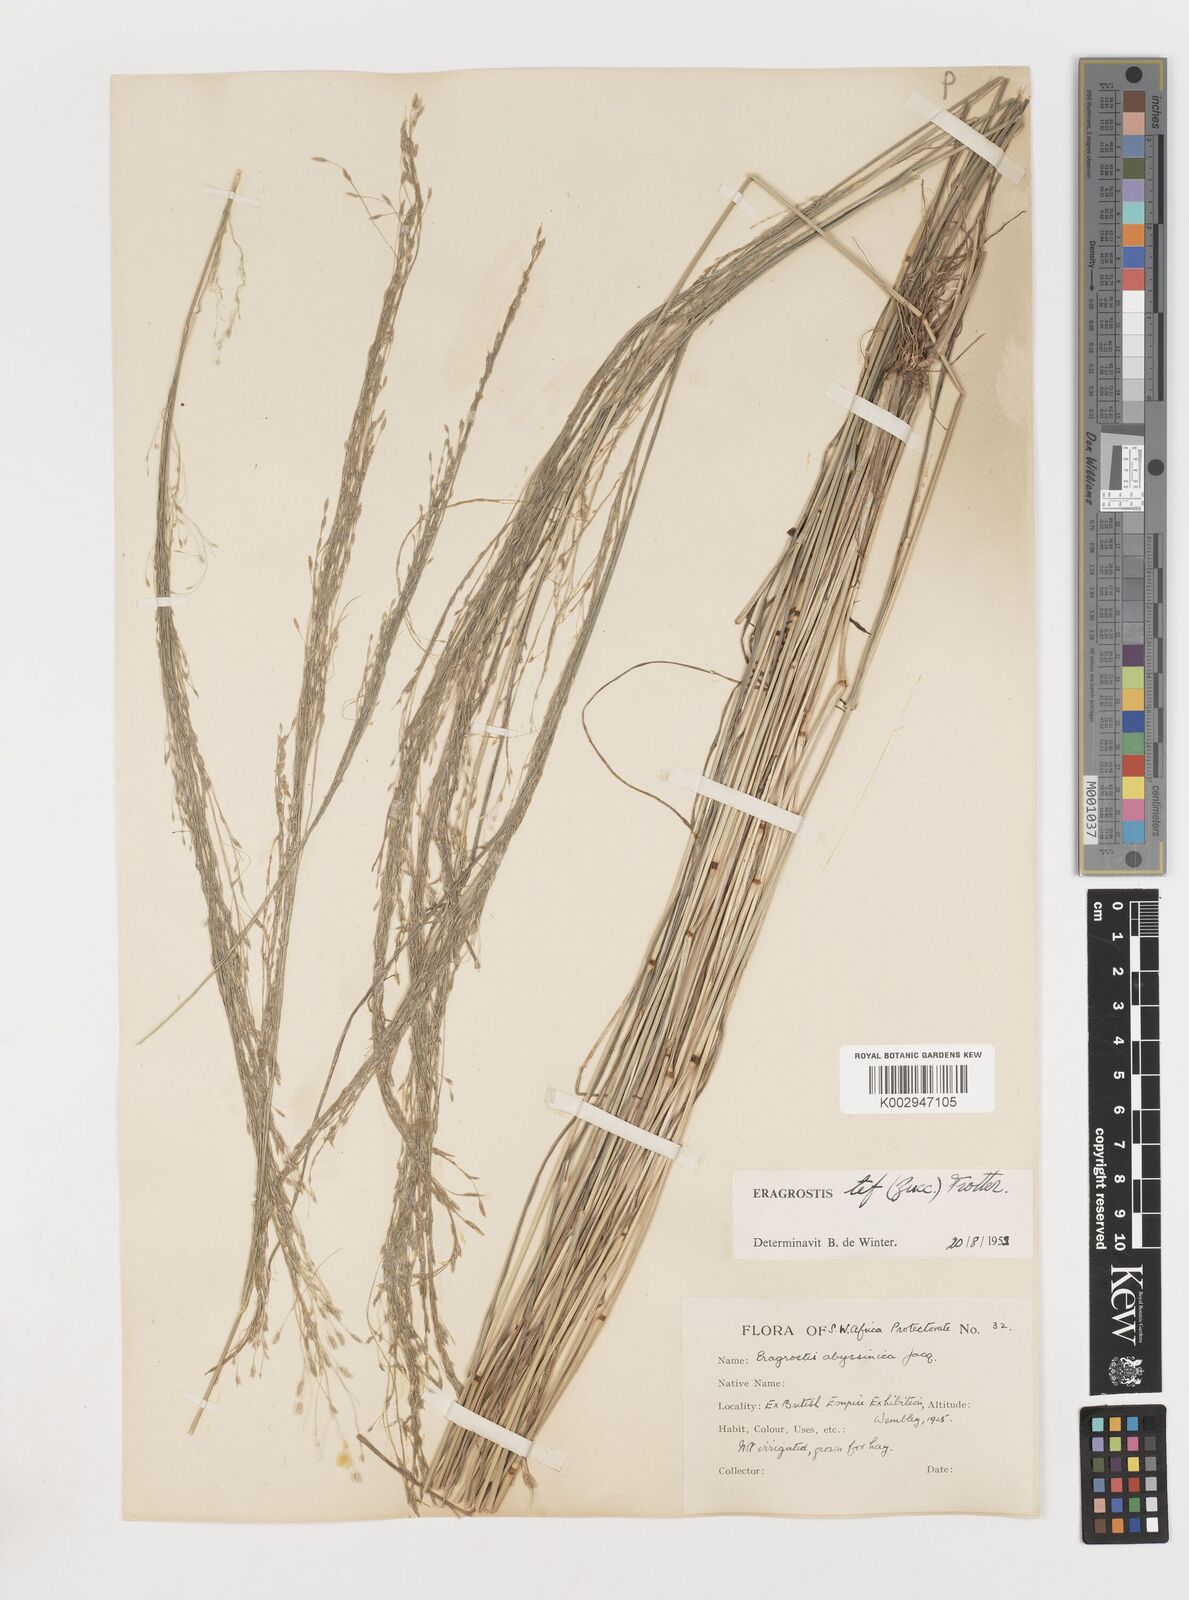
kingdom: Plantae
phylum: Tracheophyta
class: Liliopsida
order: Poales
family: Poaceae
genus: Eragrostis
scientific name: Eragrostis tef
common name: Teff
